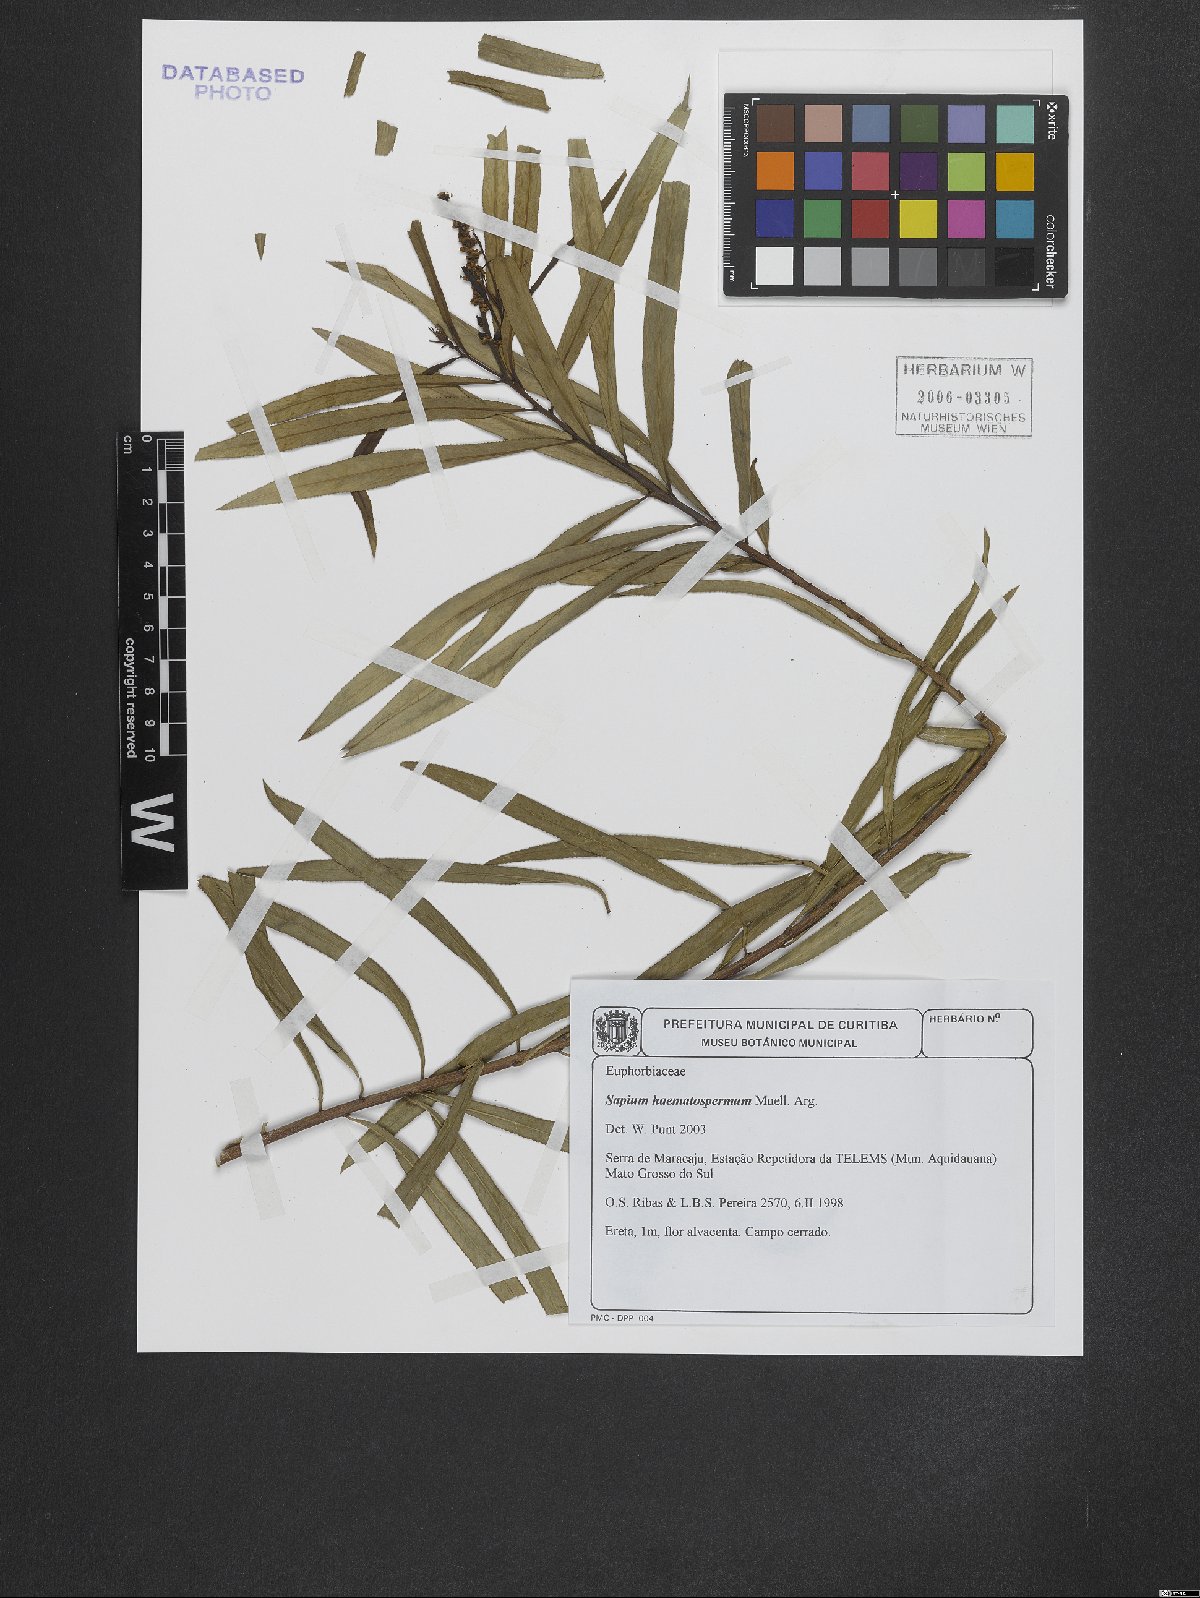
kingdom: Plantae
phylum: Tracheophyta
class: Magnoliopsida
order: Malpighiales
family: Euphorbiaceae
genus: Sapium
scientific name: Sapium haematospermum
